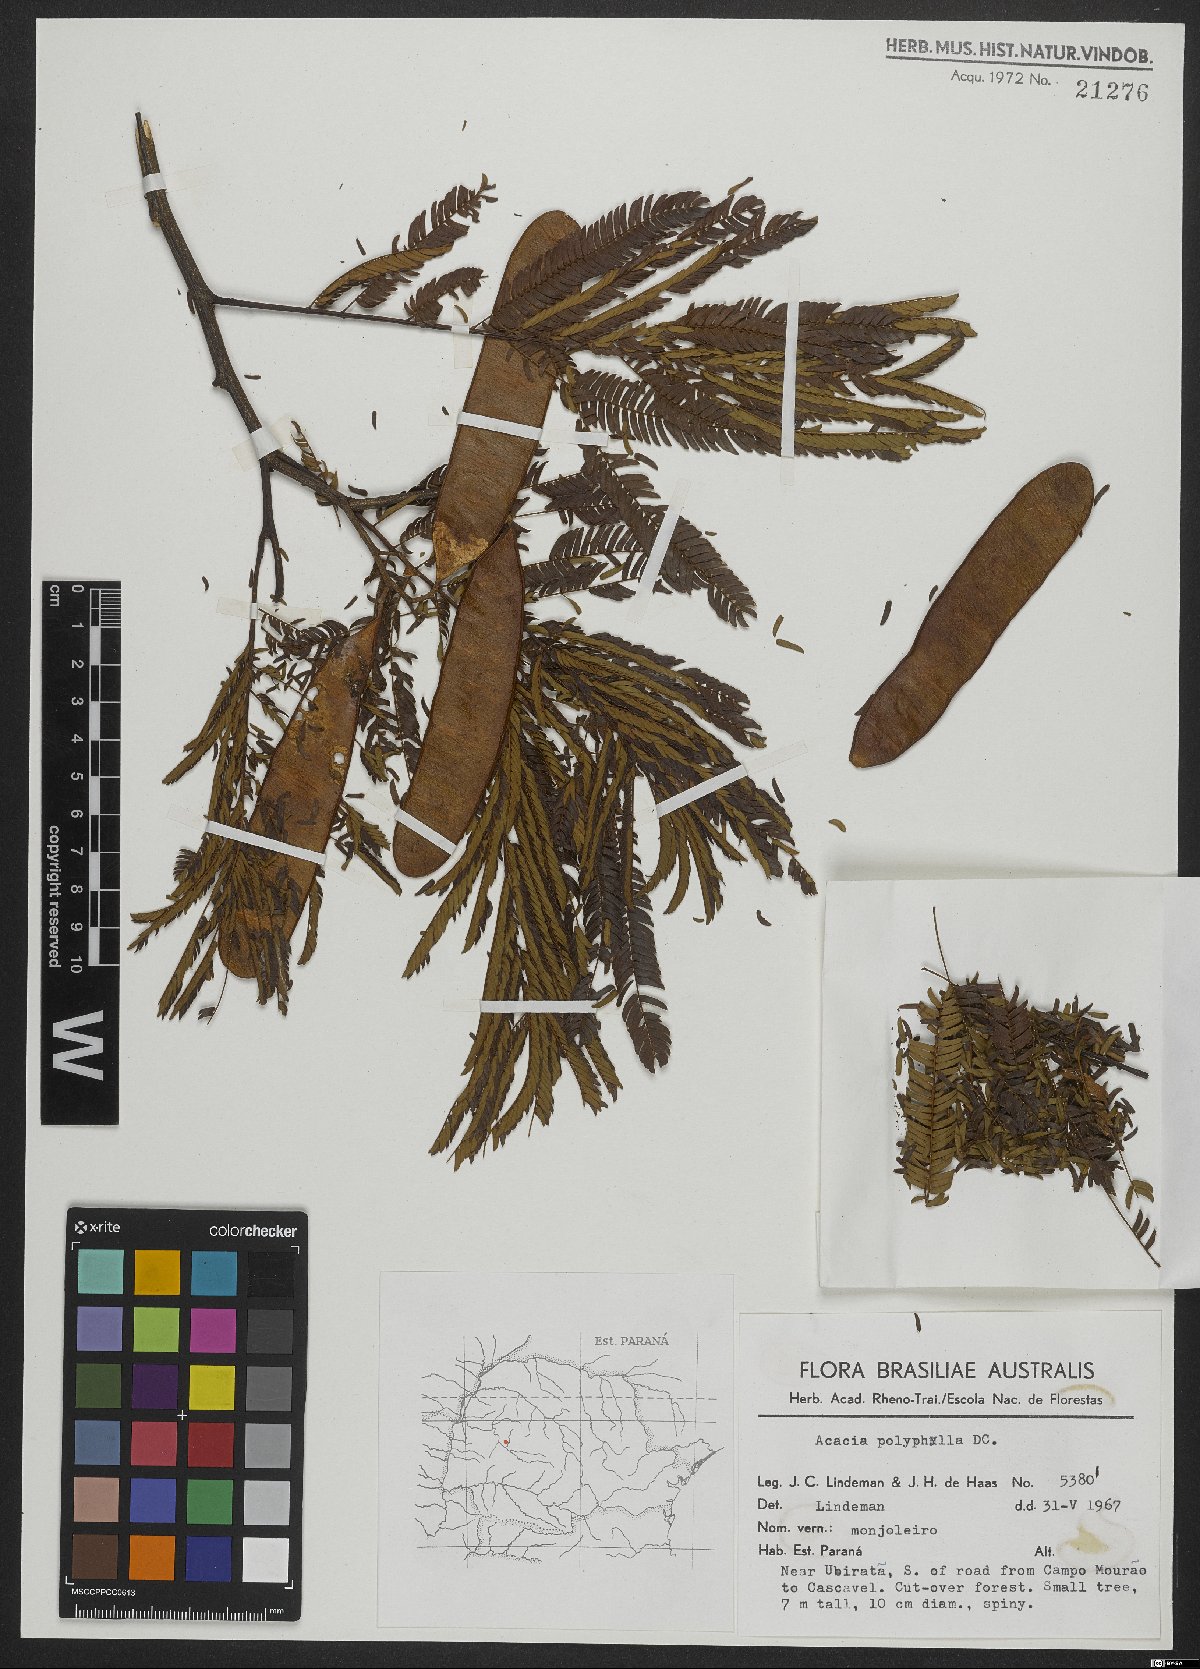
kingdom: Plantae
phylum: Tracheophyta
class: Magnoliopsida
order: Fabales
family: Fabaceae
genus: Senegalia
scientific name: Senegalia polyphylla
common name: White-tamarind
